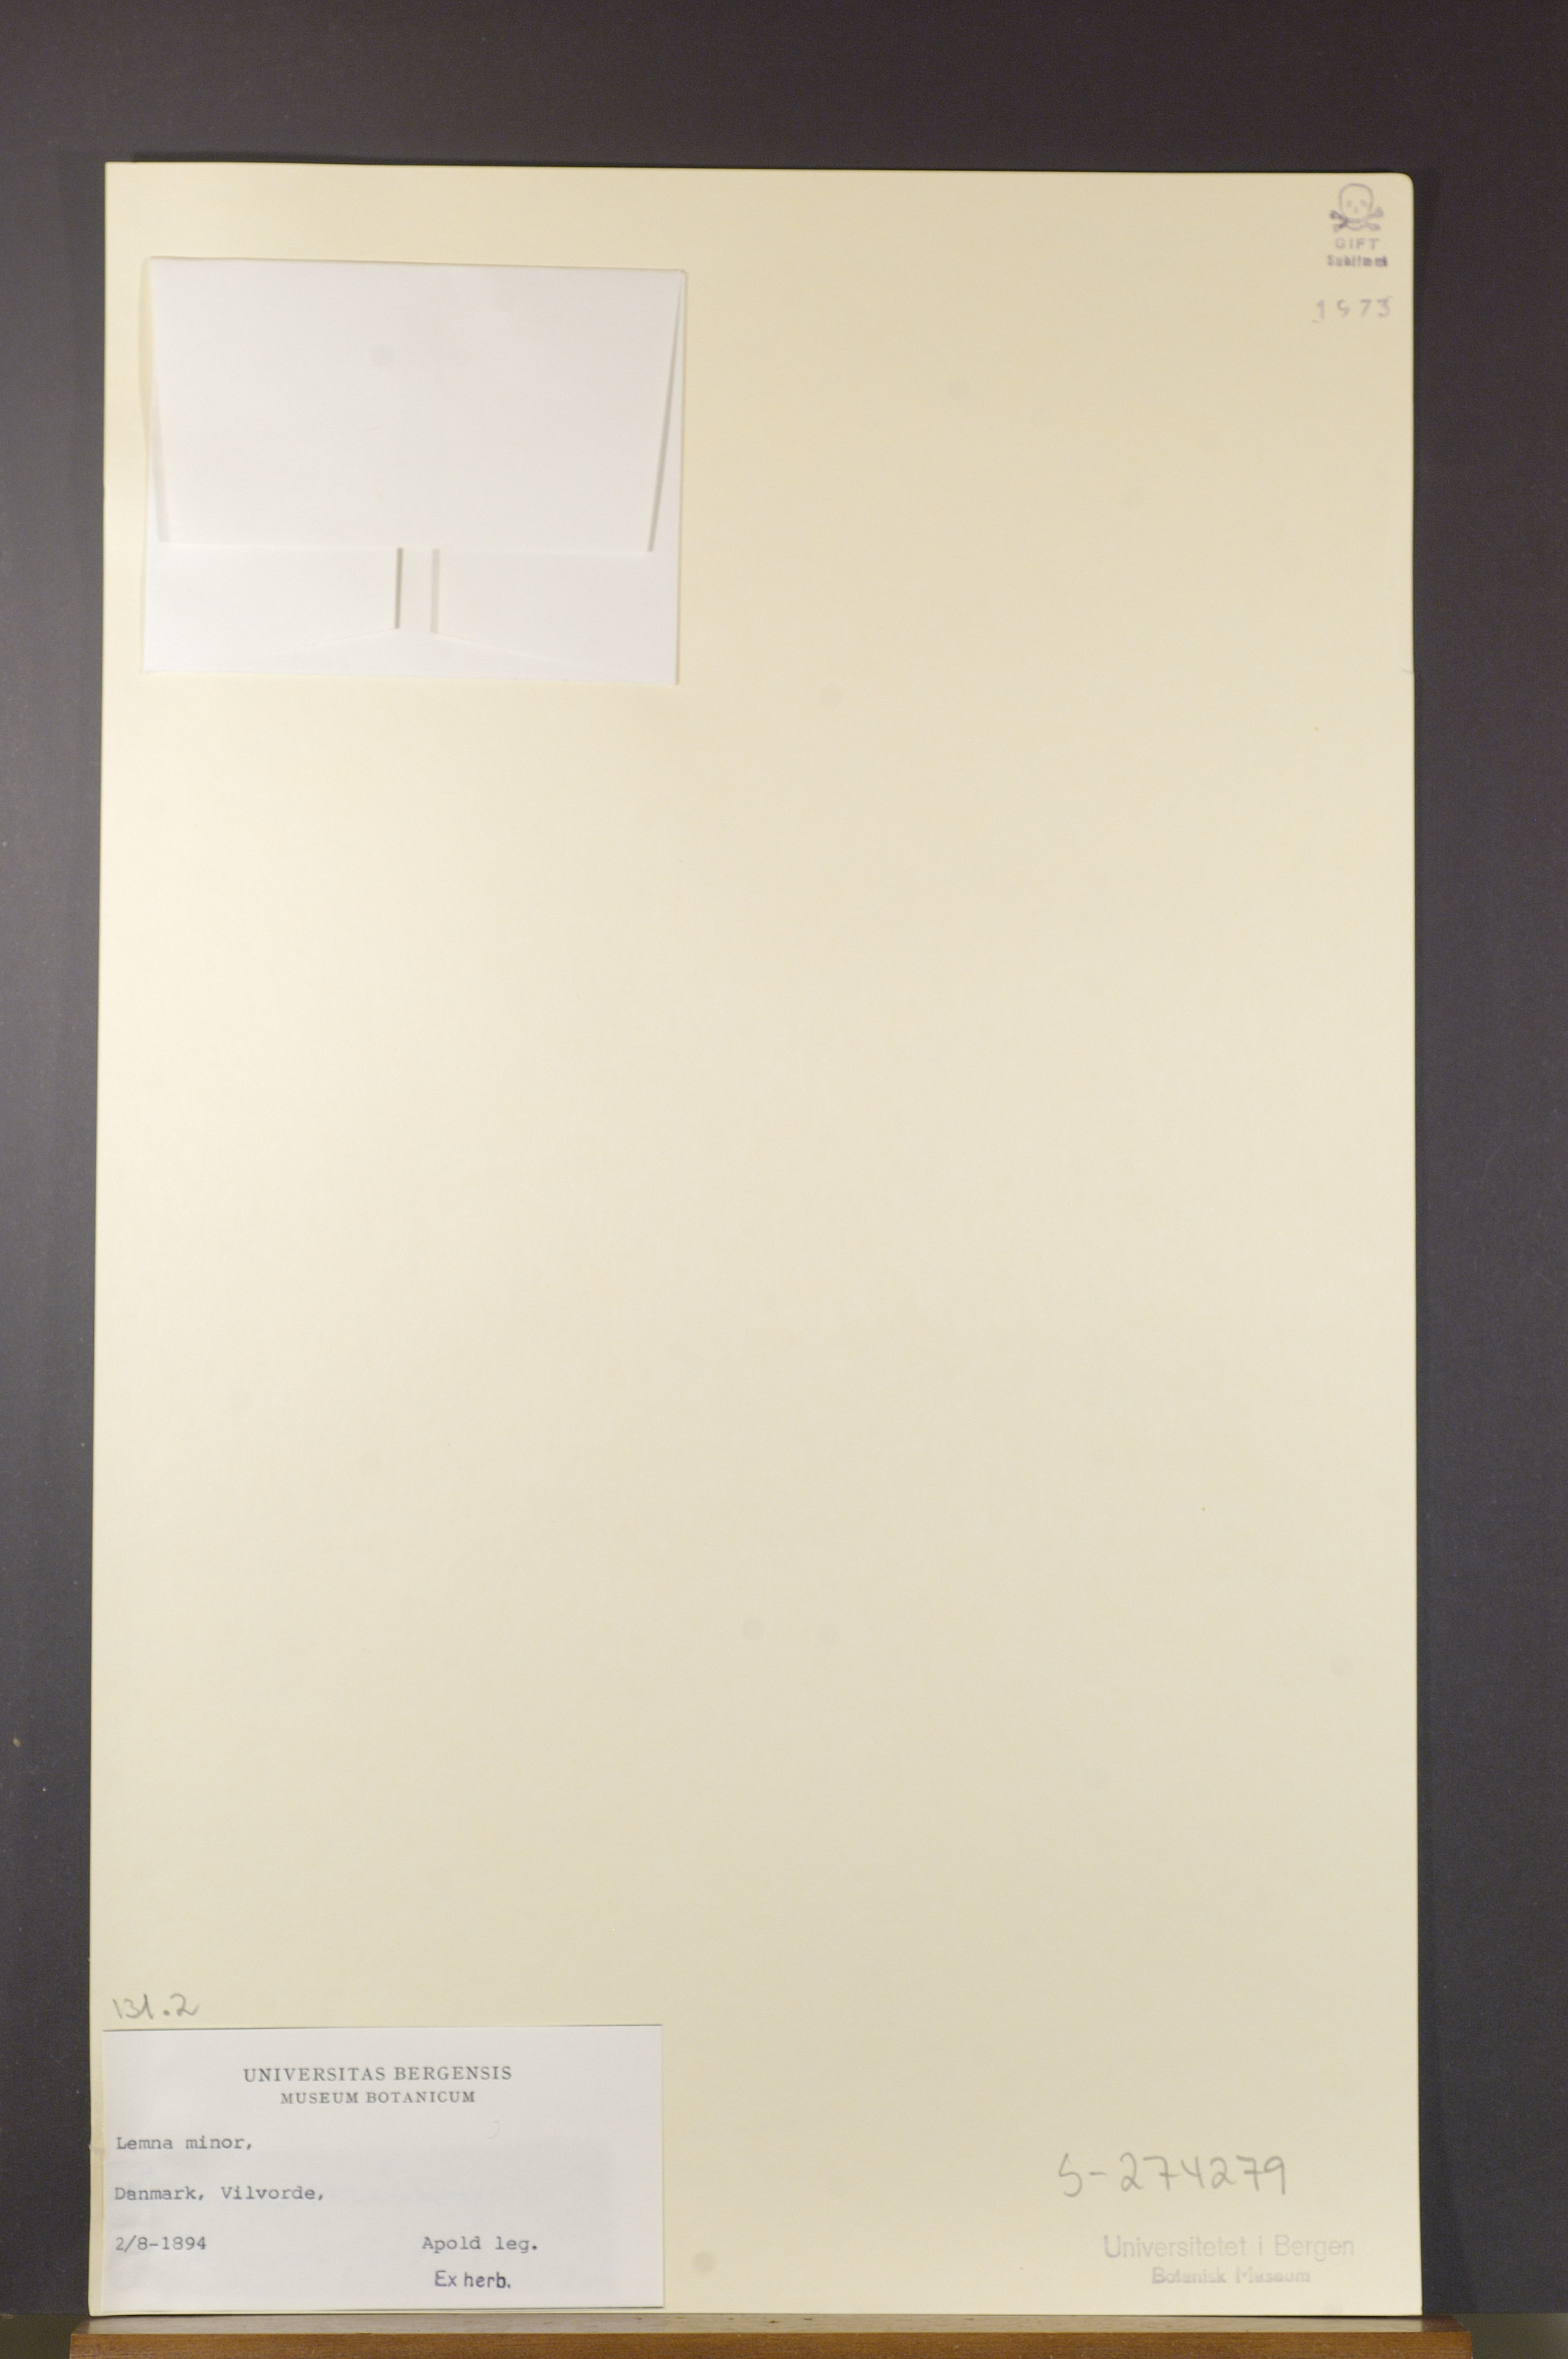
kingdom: Plantae
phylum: Tracheophyta
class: Liliopsida
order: Alismatales
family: Araceae
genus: Lemna
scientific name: Lemna minor
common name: Common duckweed
